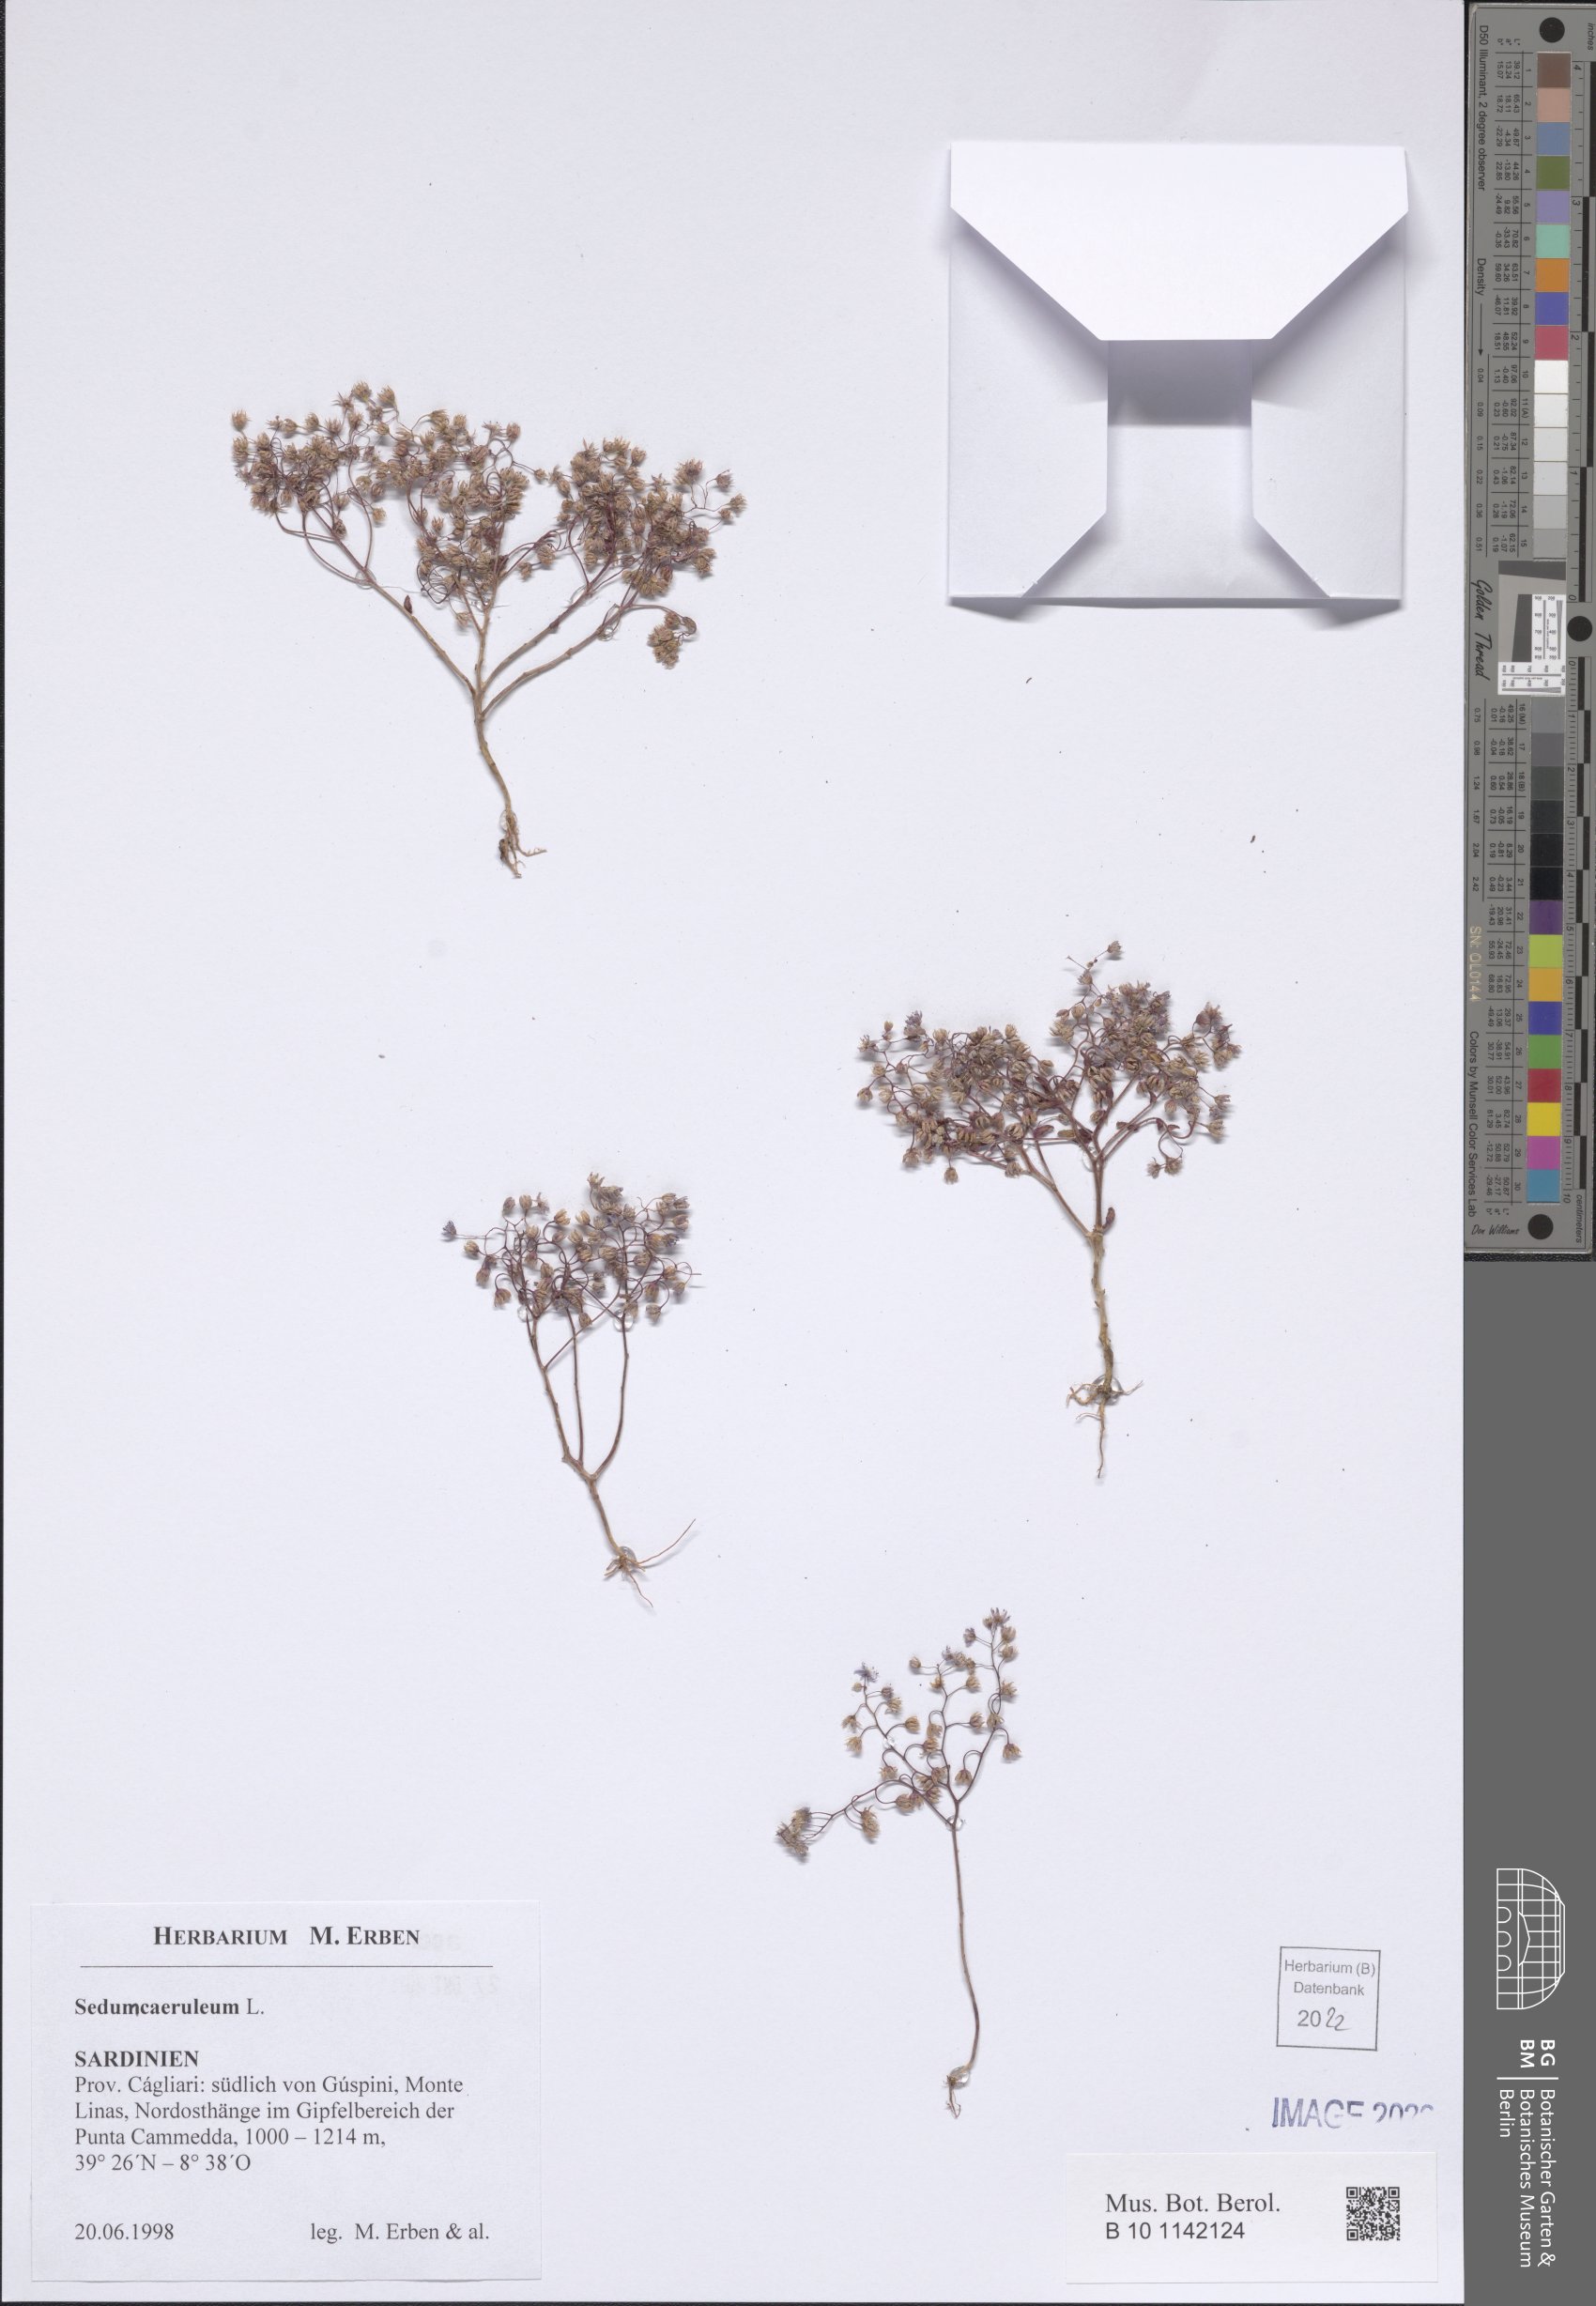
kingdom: Plantae
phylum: Tracheophyta
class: Magnoliopsida
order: Saxifragales
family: Crassulaceae
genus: Sedum
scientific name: Sedum caeruleum
